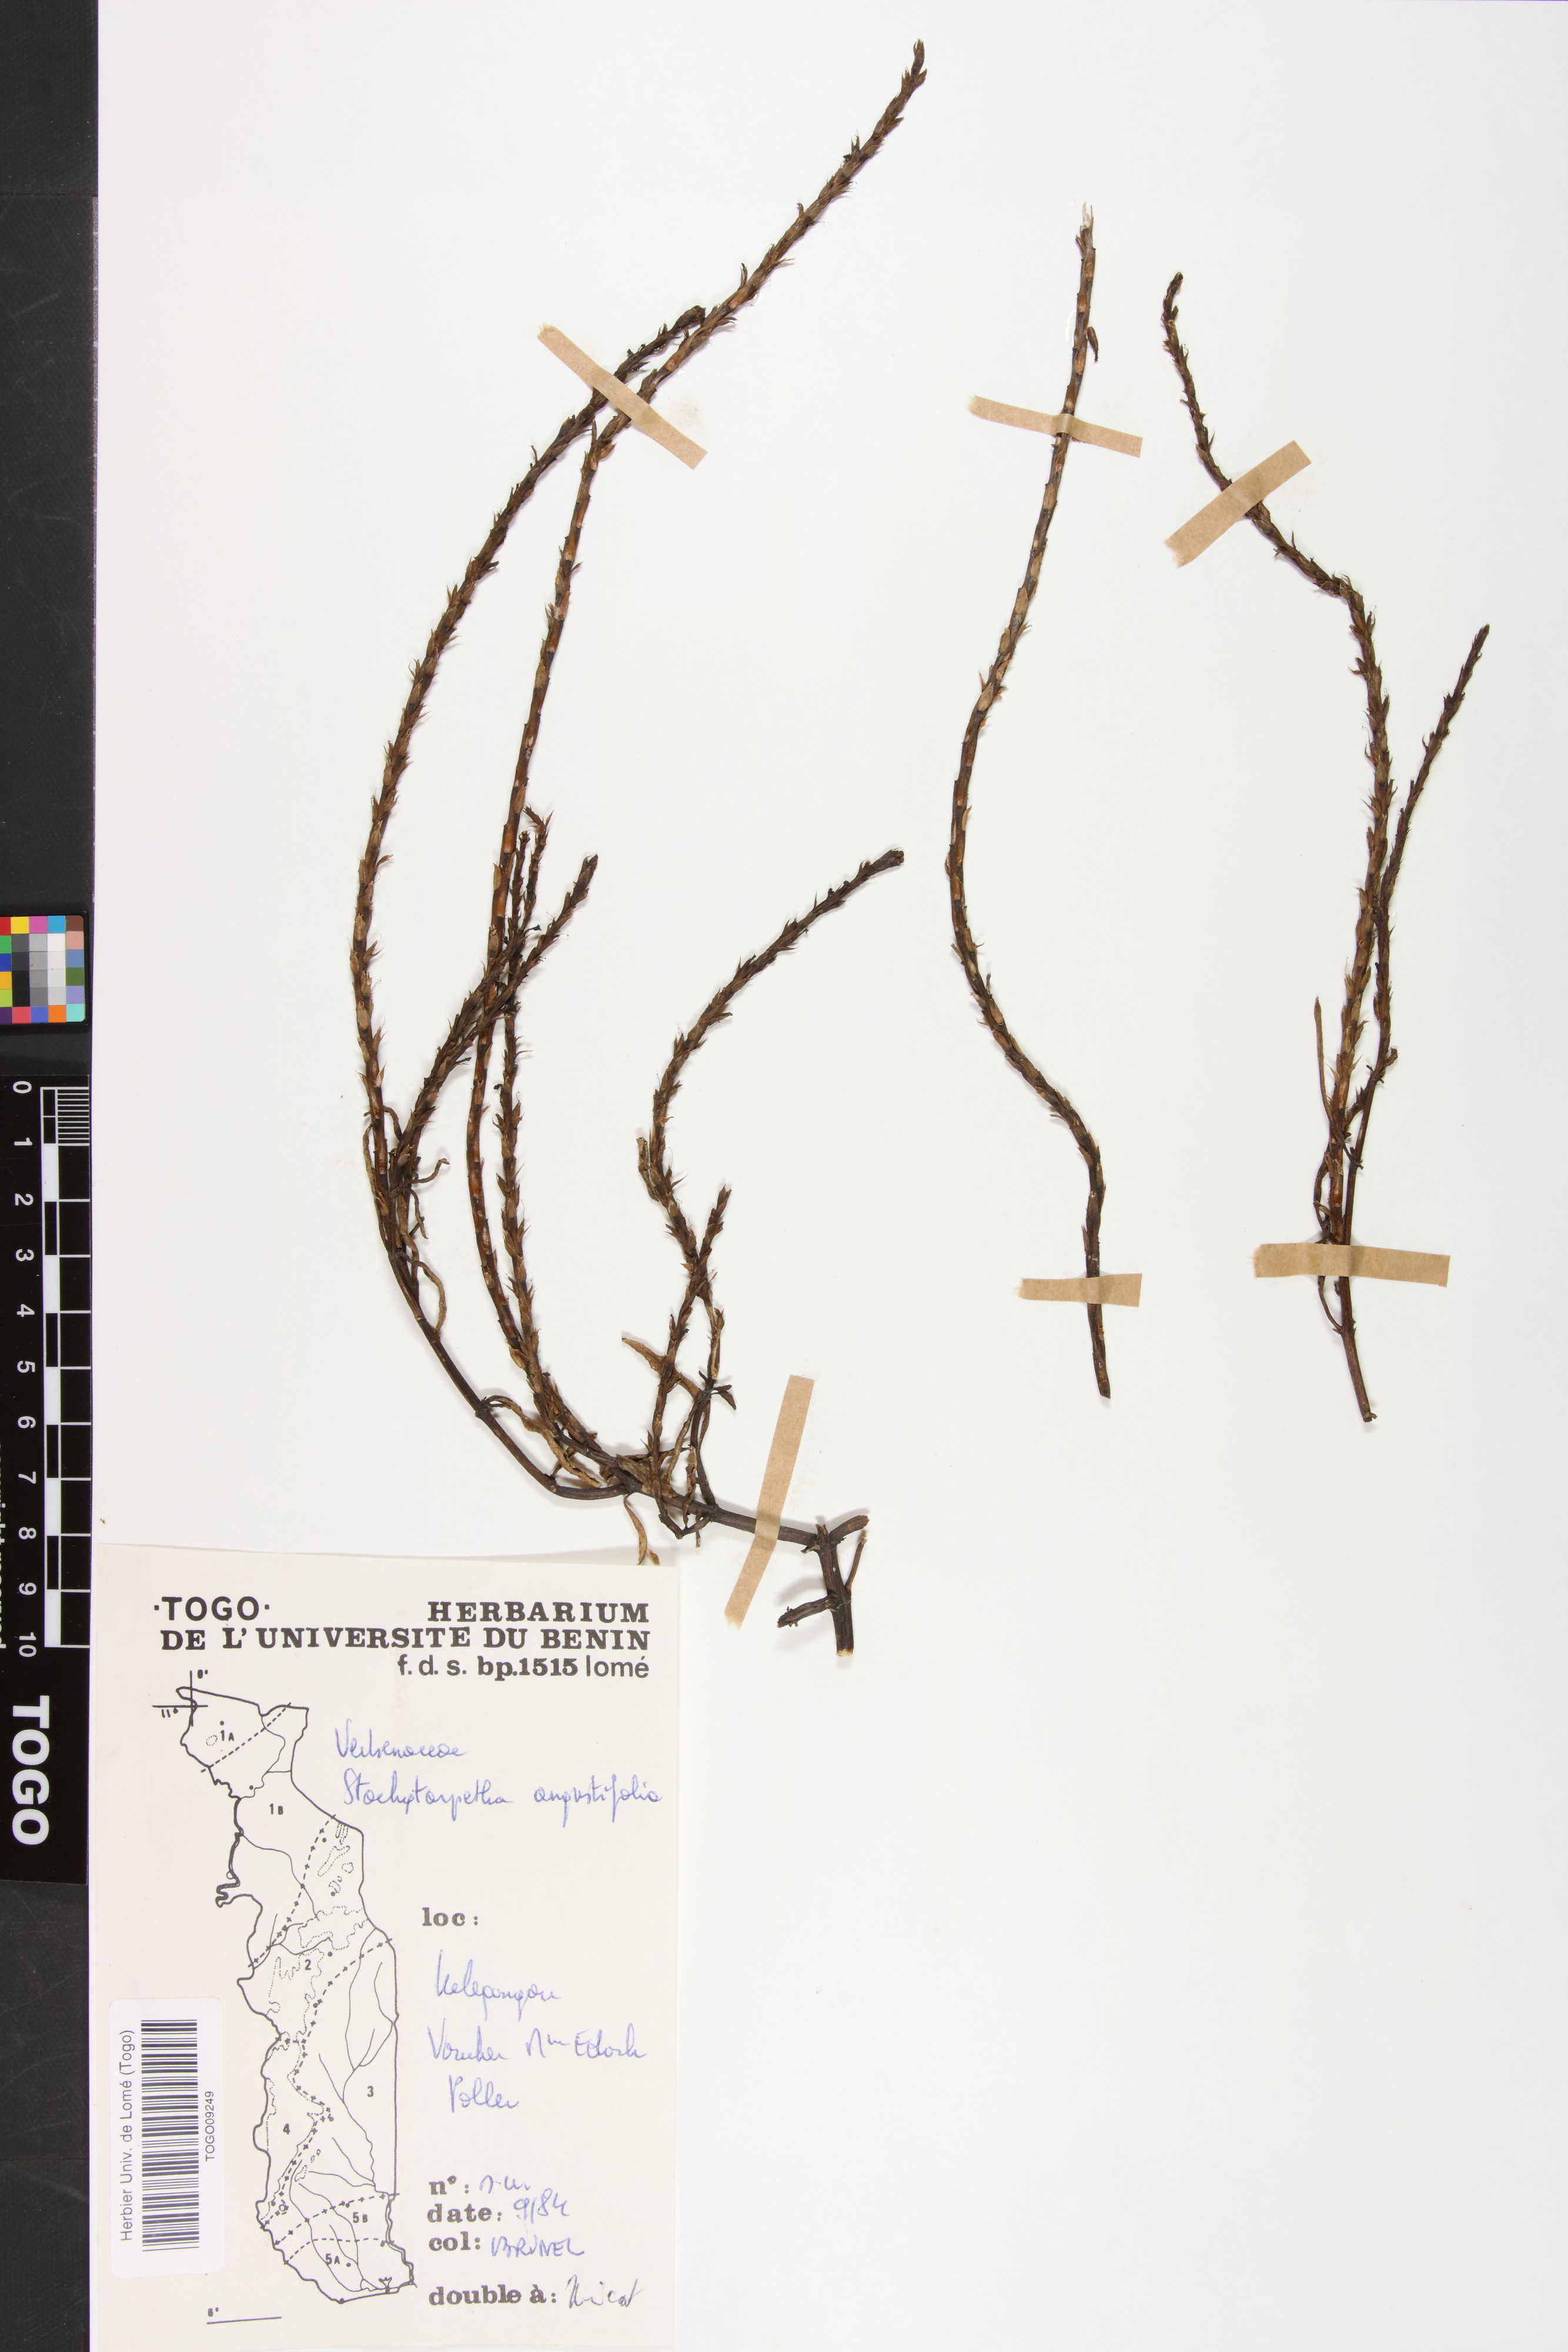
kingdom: Plantae
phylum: Tracheophyta
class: Magnoliopsida
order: Lamiales
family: Verbenaceae
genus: Stachytarpheta
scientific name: Stachytarpheta indica
